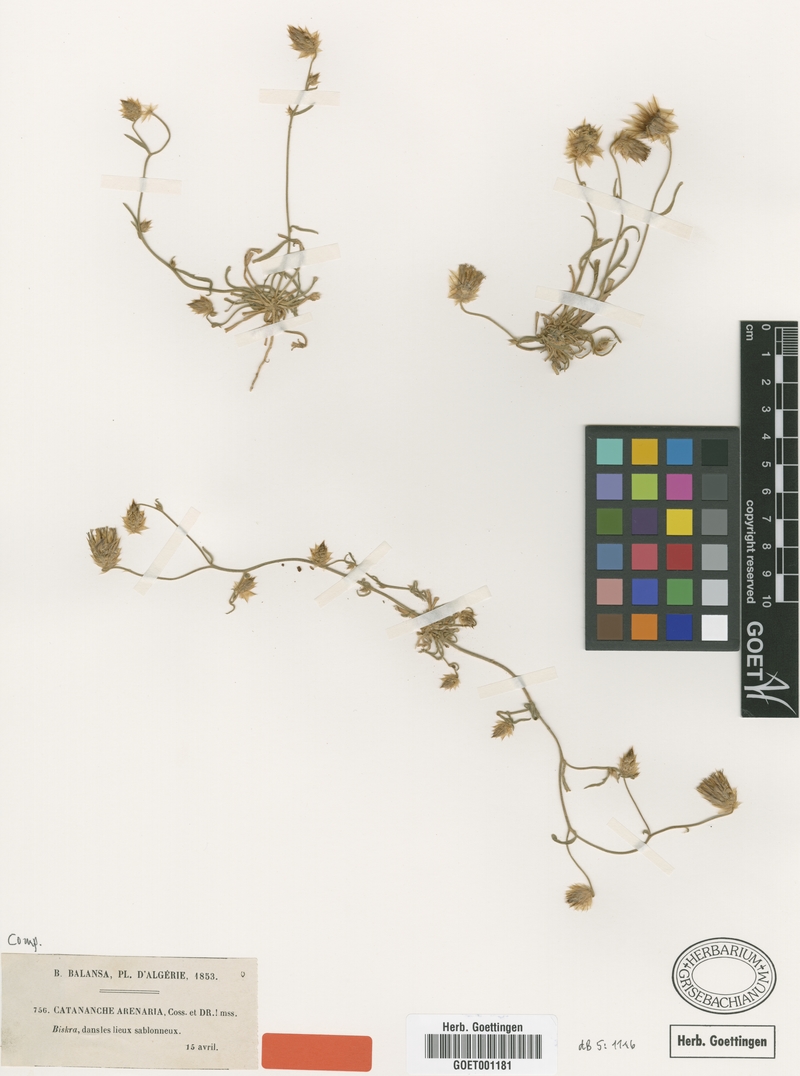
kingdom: Plantae
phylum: Tracheophyta
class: Magnoliopsida
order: Asterales
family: Asteraceae
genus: Catananche
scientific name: Catananche arenaria
